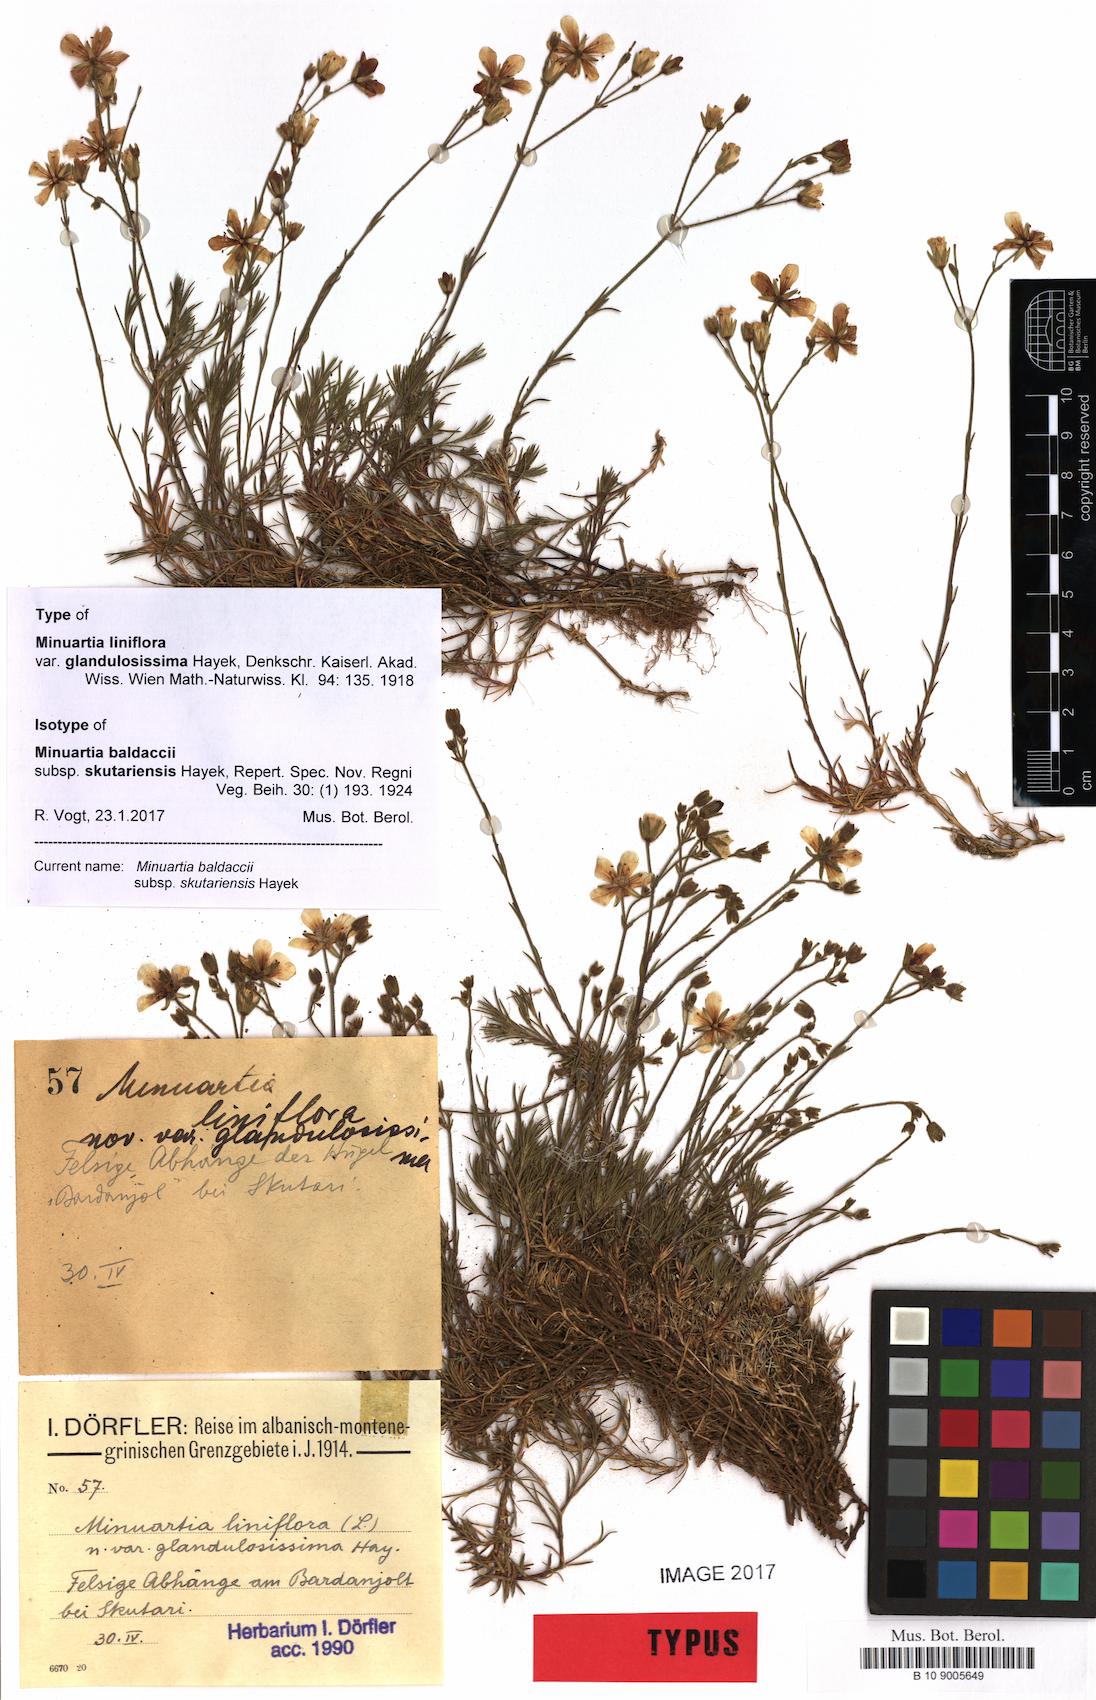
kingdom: Plantae
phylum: Tracheophyta
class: Magnoliopsida
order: Caryophyllales
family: Caryophyllaceae
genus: Cherleria
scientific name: Cherleria garckeana
